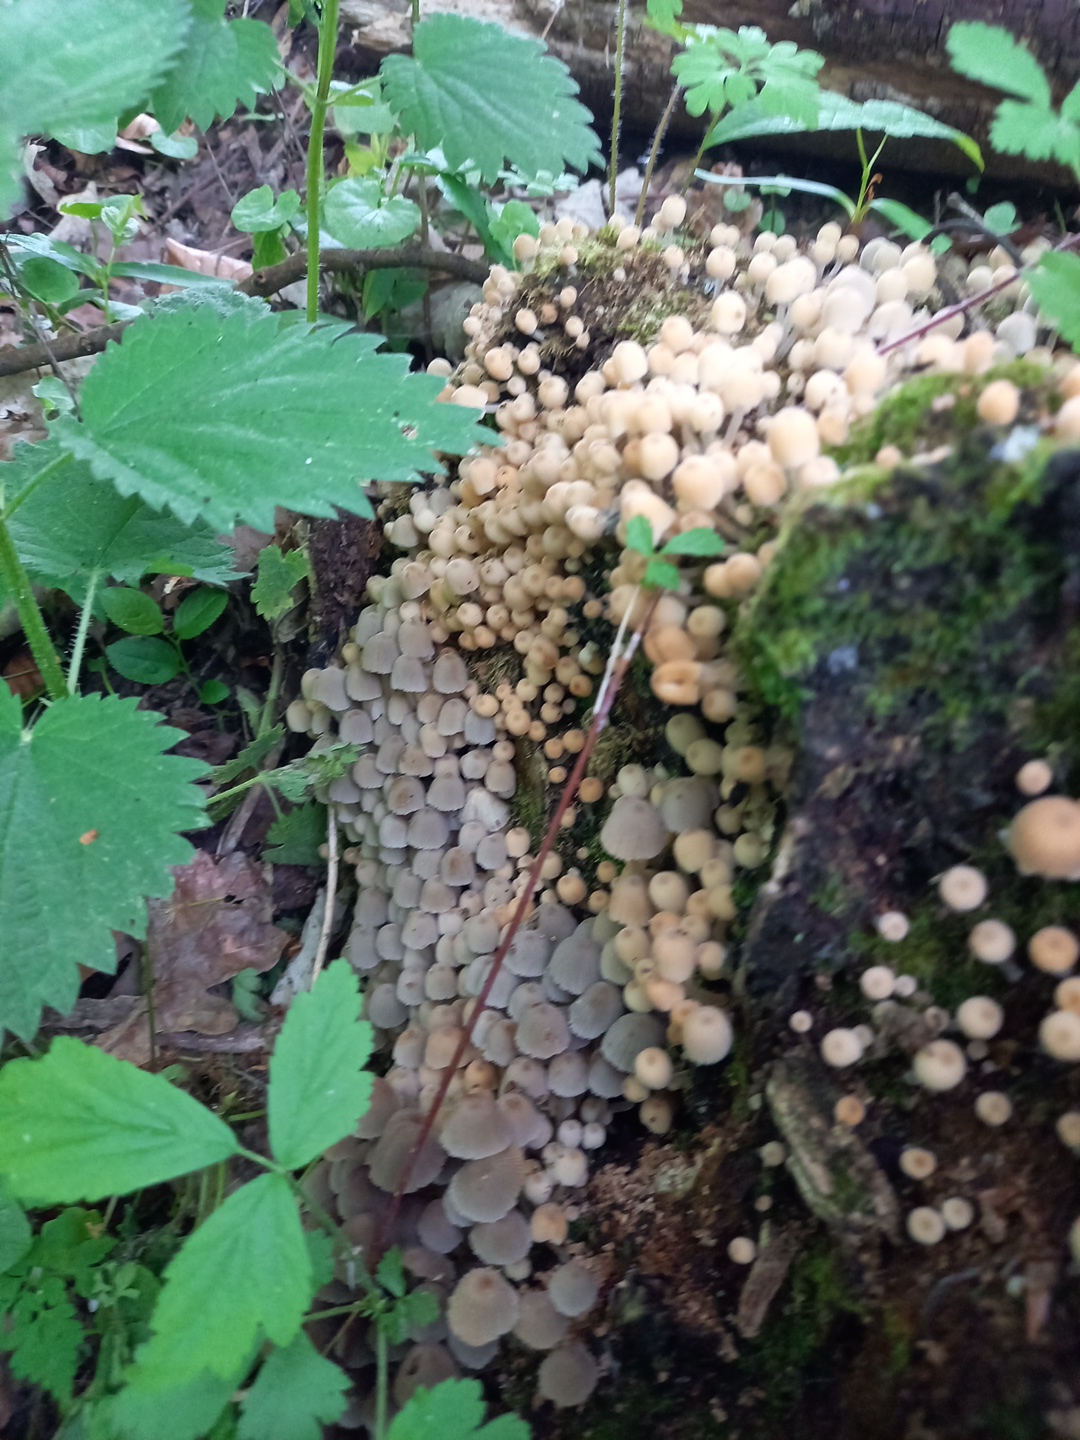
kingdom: Fungi
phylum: Basidiomycota
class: Agaricomycetes
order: Agaricales
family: Psathyrellaceae
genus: Coprinellus
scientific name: Coprinellus disseminatus
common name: bredsået blækhat
